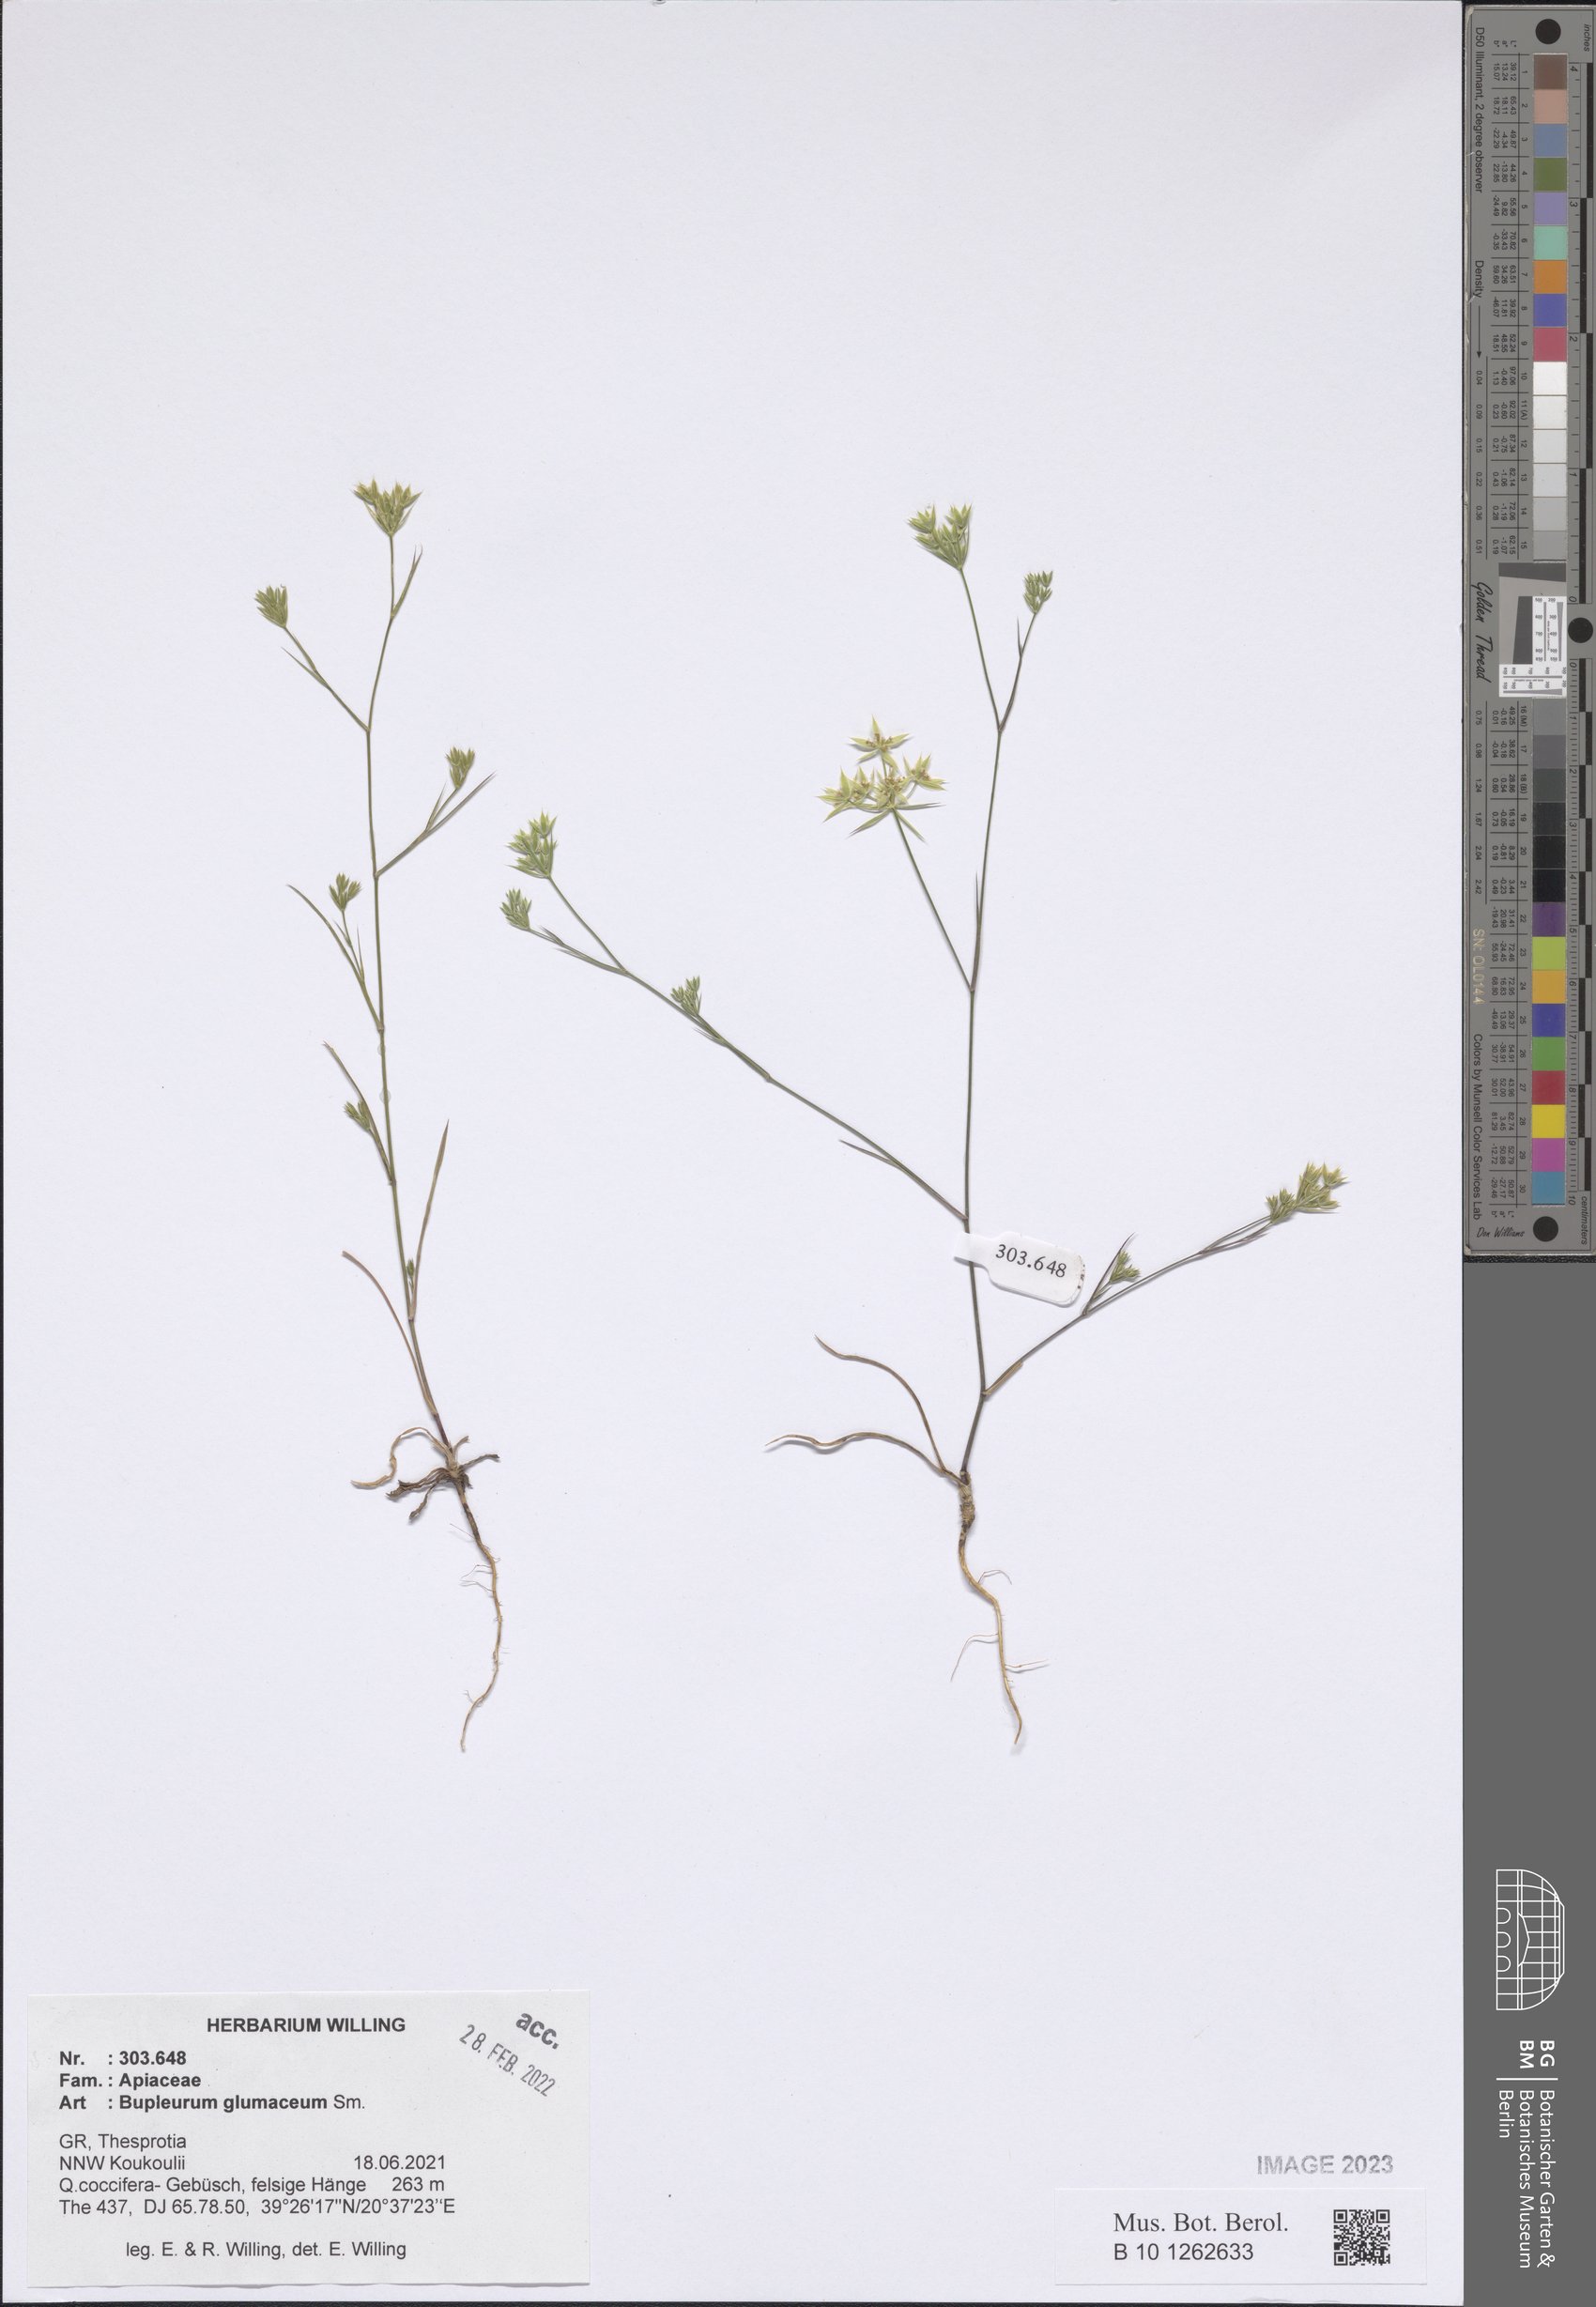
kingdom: Plantae
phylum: Tracheophyta
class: Magnoliopsida
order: Apiales
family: Apiaceae
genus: Bupleurum
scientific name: Bupleurum glumaceum
